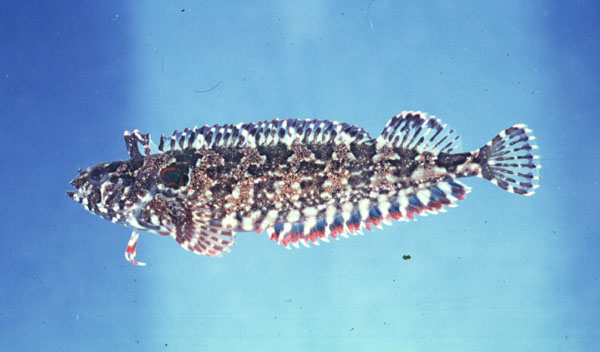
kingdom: Animalia
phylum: Chordata
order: Perciformes
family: Clinidae
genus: Blennioclinus
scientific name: Blennioclinus brachycephalus
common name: Lace klipfish
